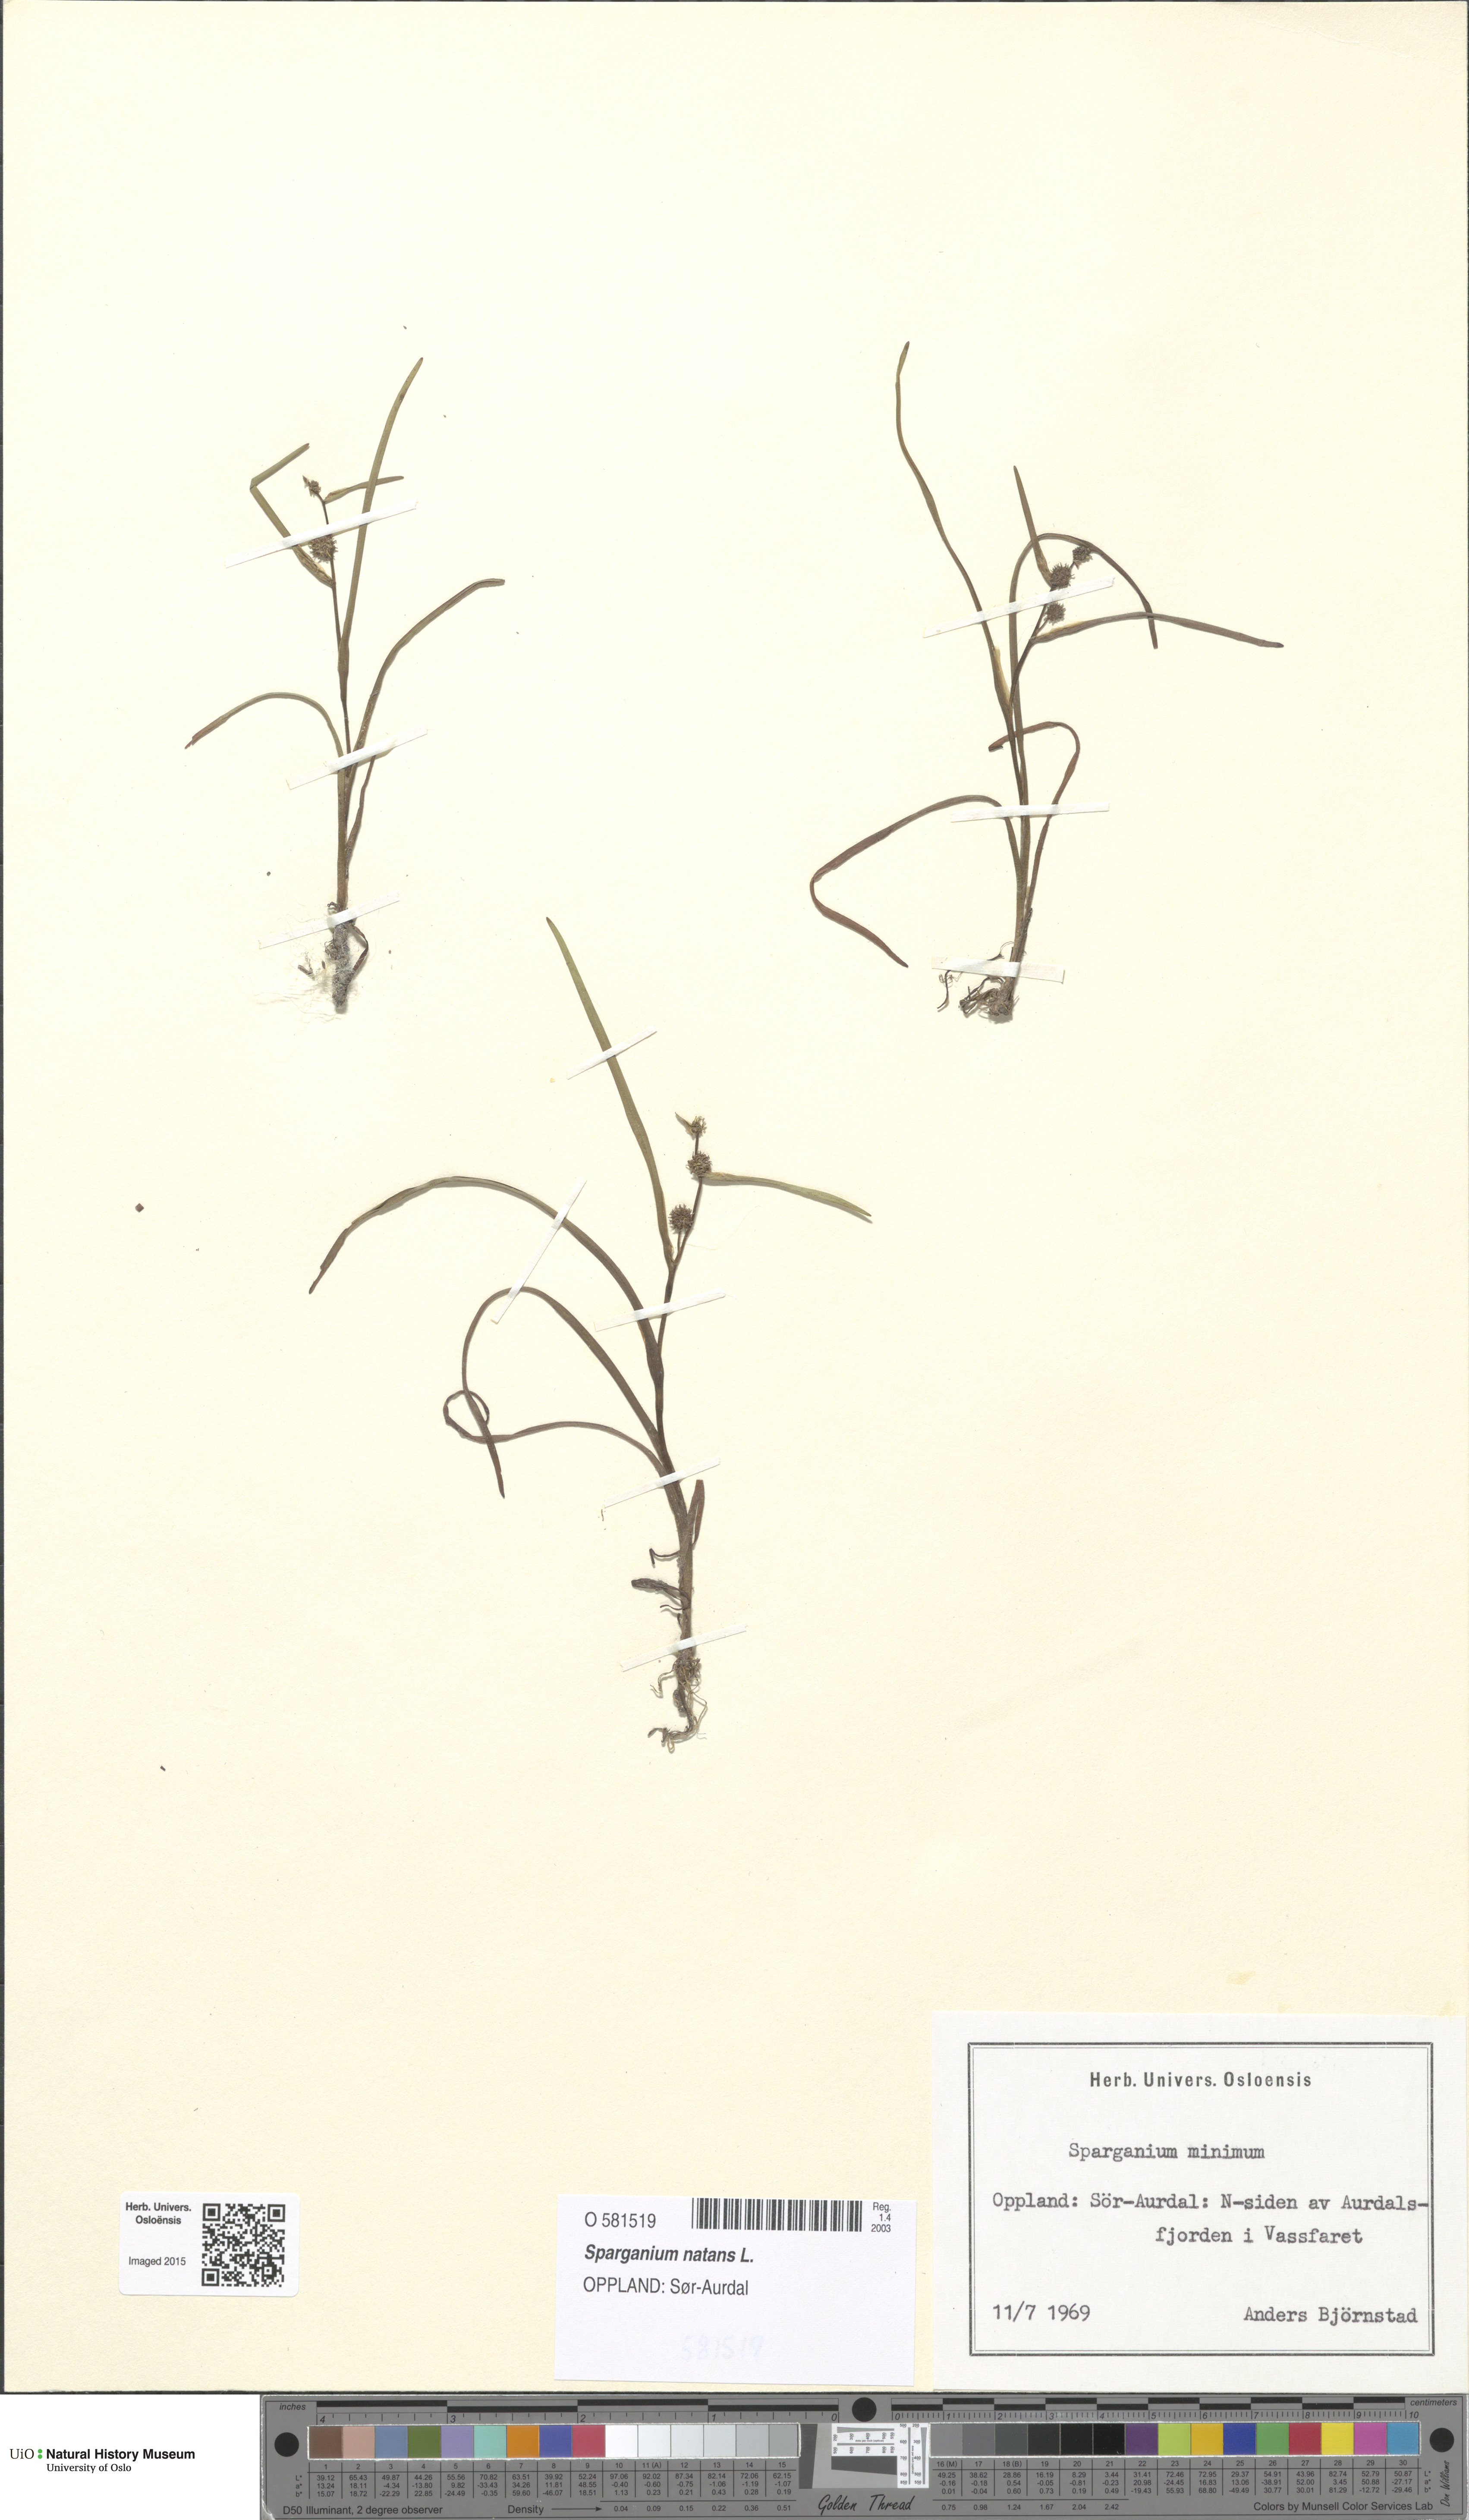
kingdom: Plantae
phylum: Tracheophyta
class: Liliopsida
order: Poales
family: Typhaceae
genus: Sparganium
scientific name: Sparganium natans
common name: Least bur-reed
